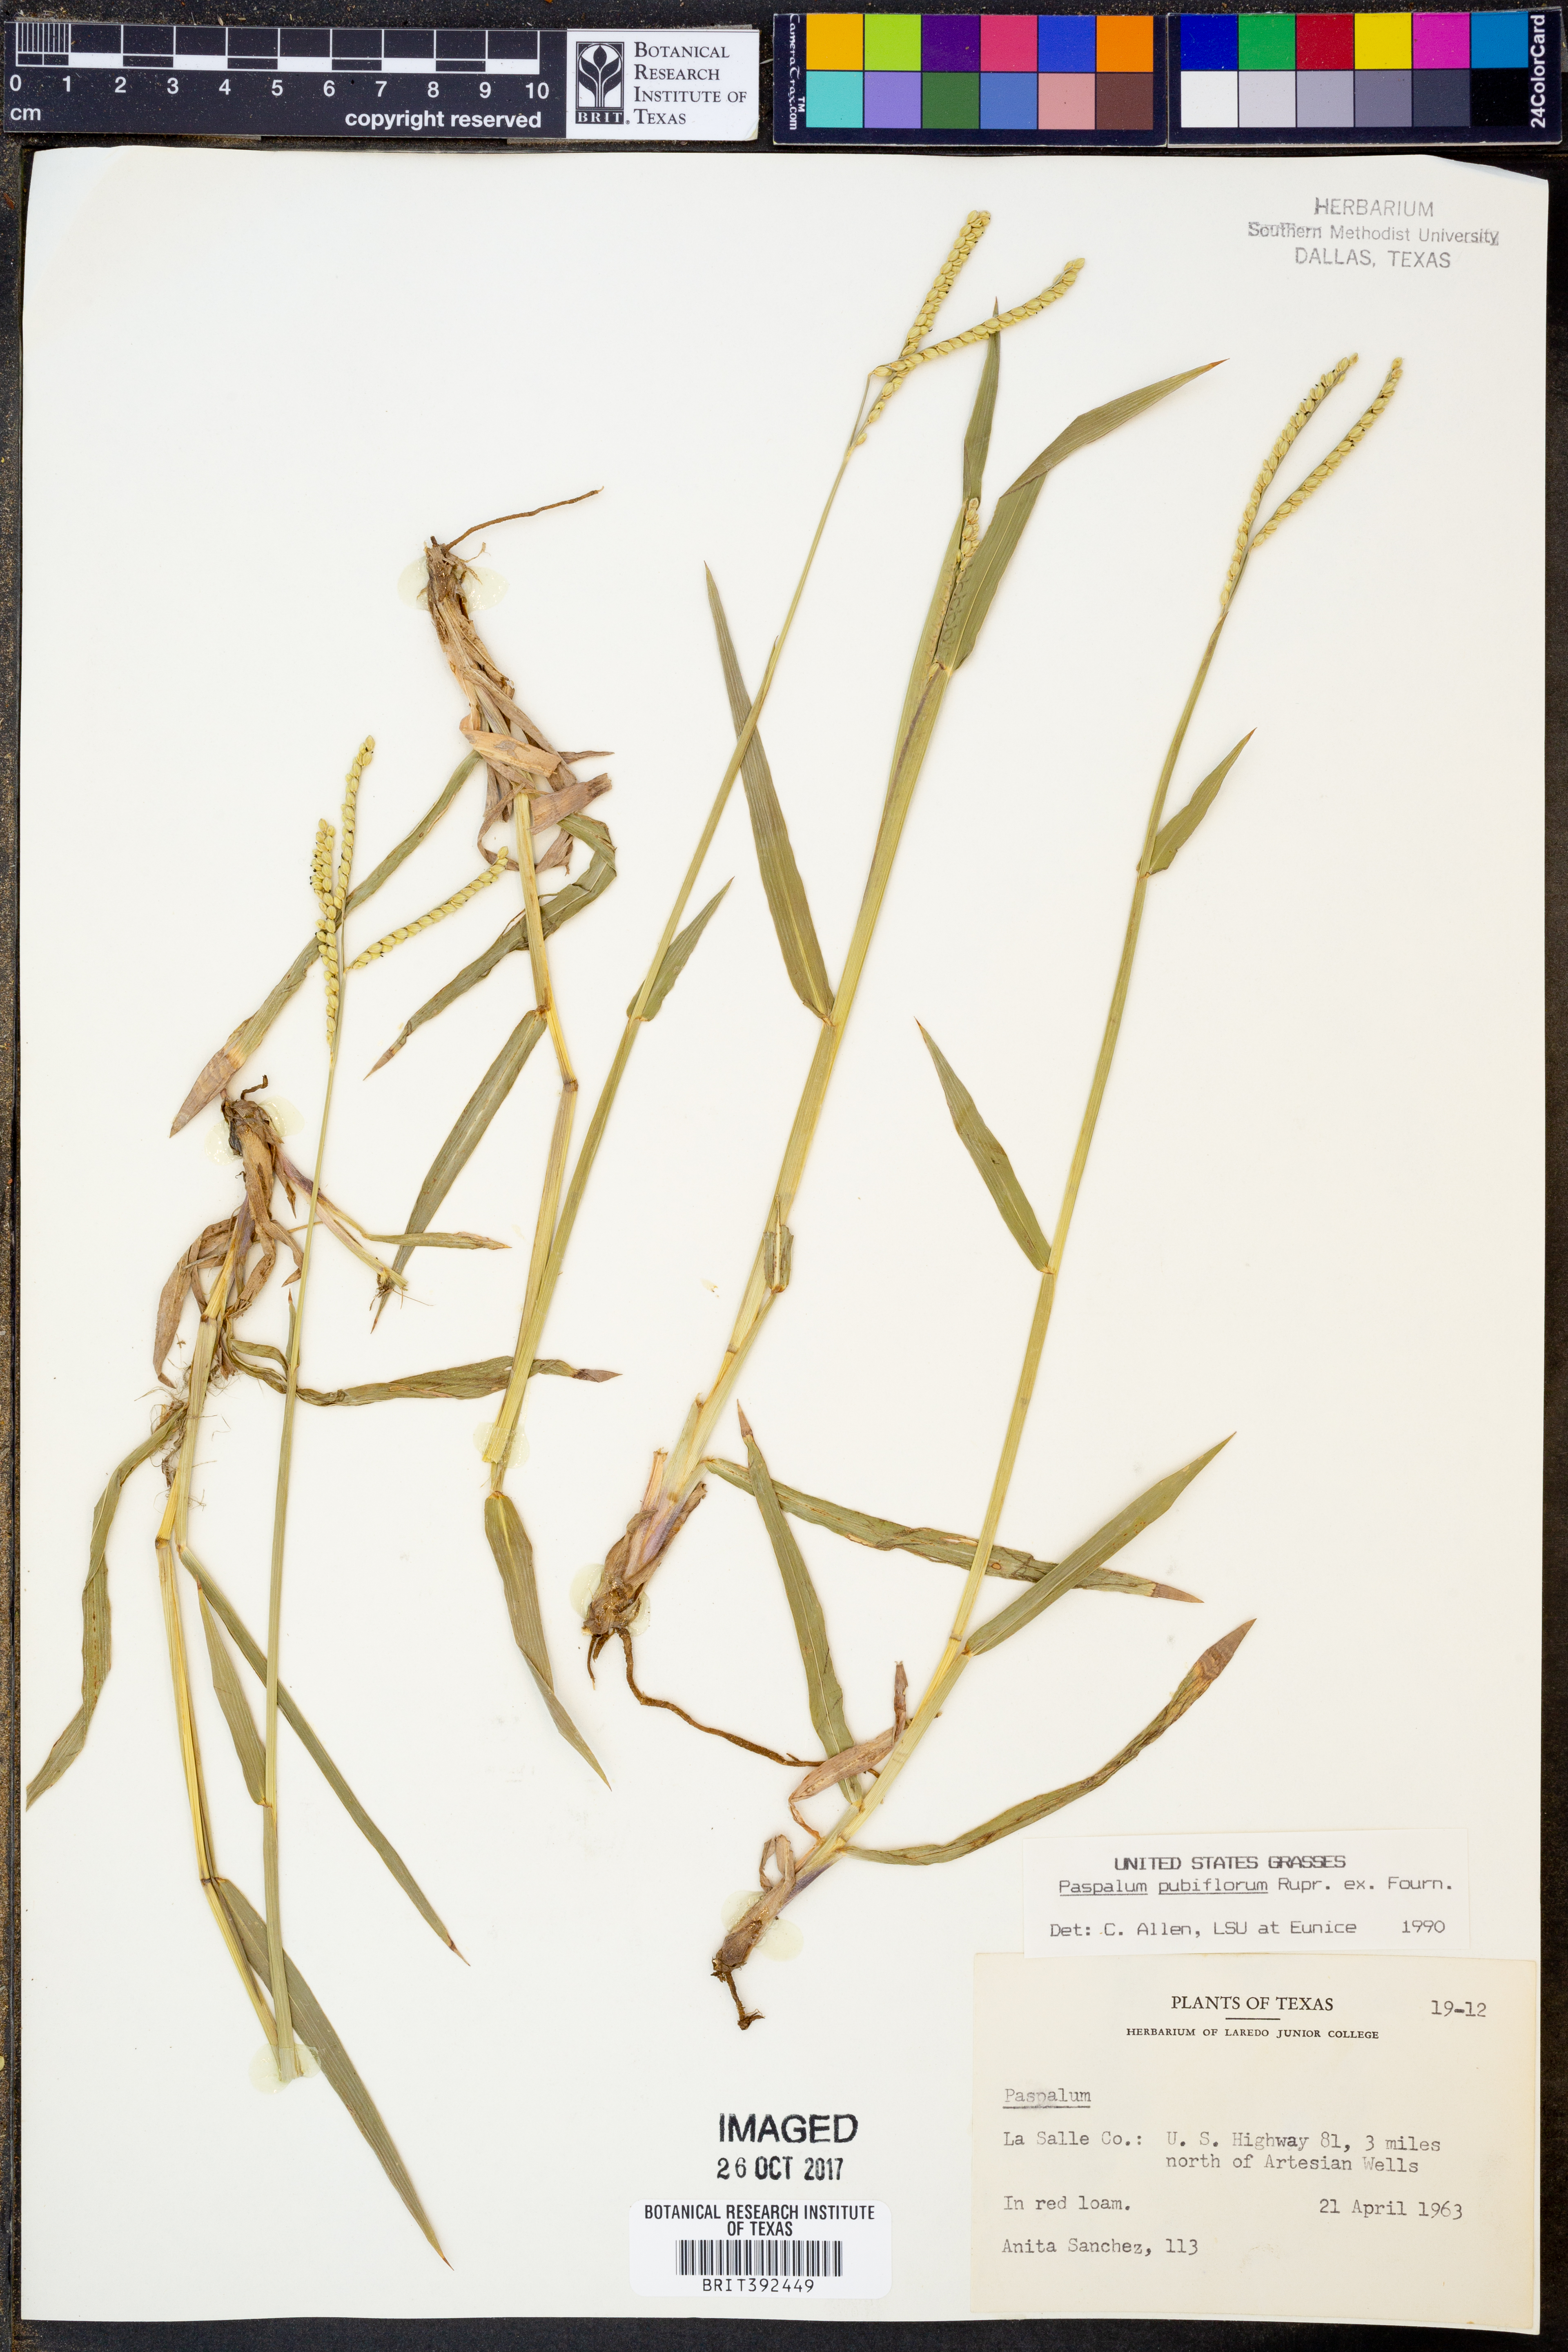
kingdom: Plantae
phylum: Tracheophyta
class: Liliopsida
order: Poales
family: Poaceae
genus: Paspalum
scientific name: Paspalum pubiflorum
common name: Hairy-seed paspalum
